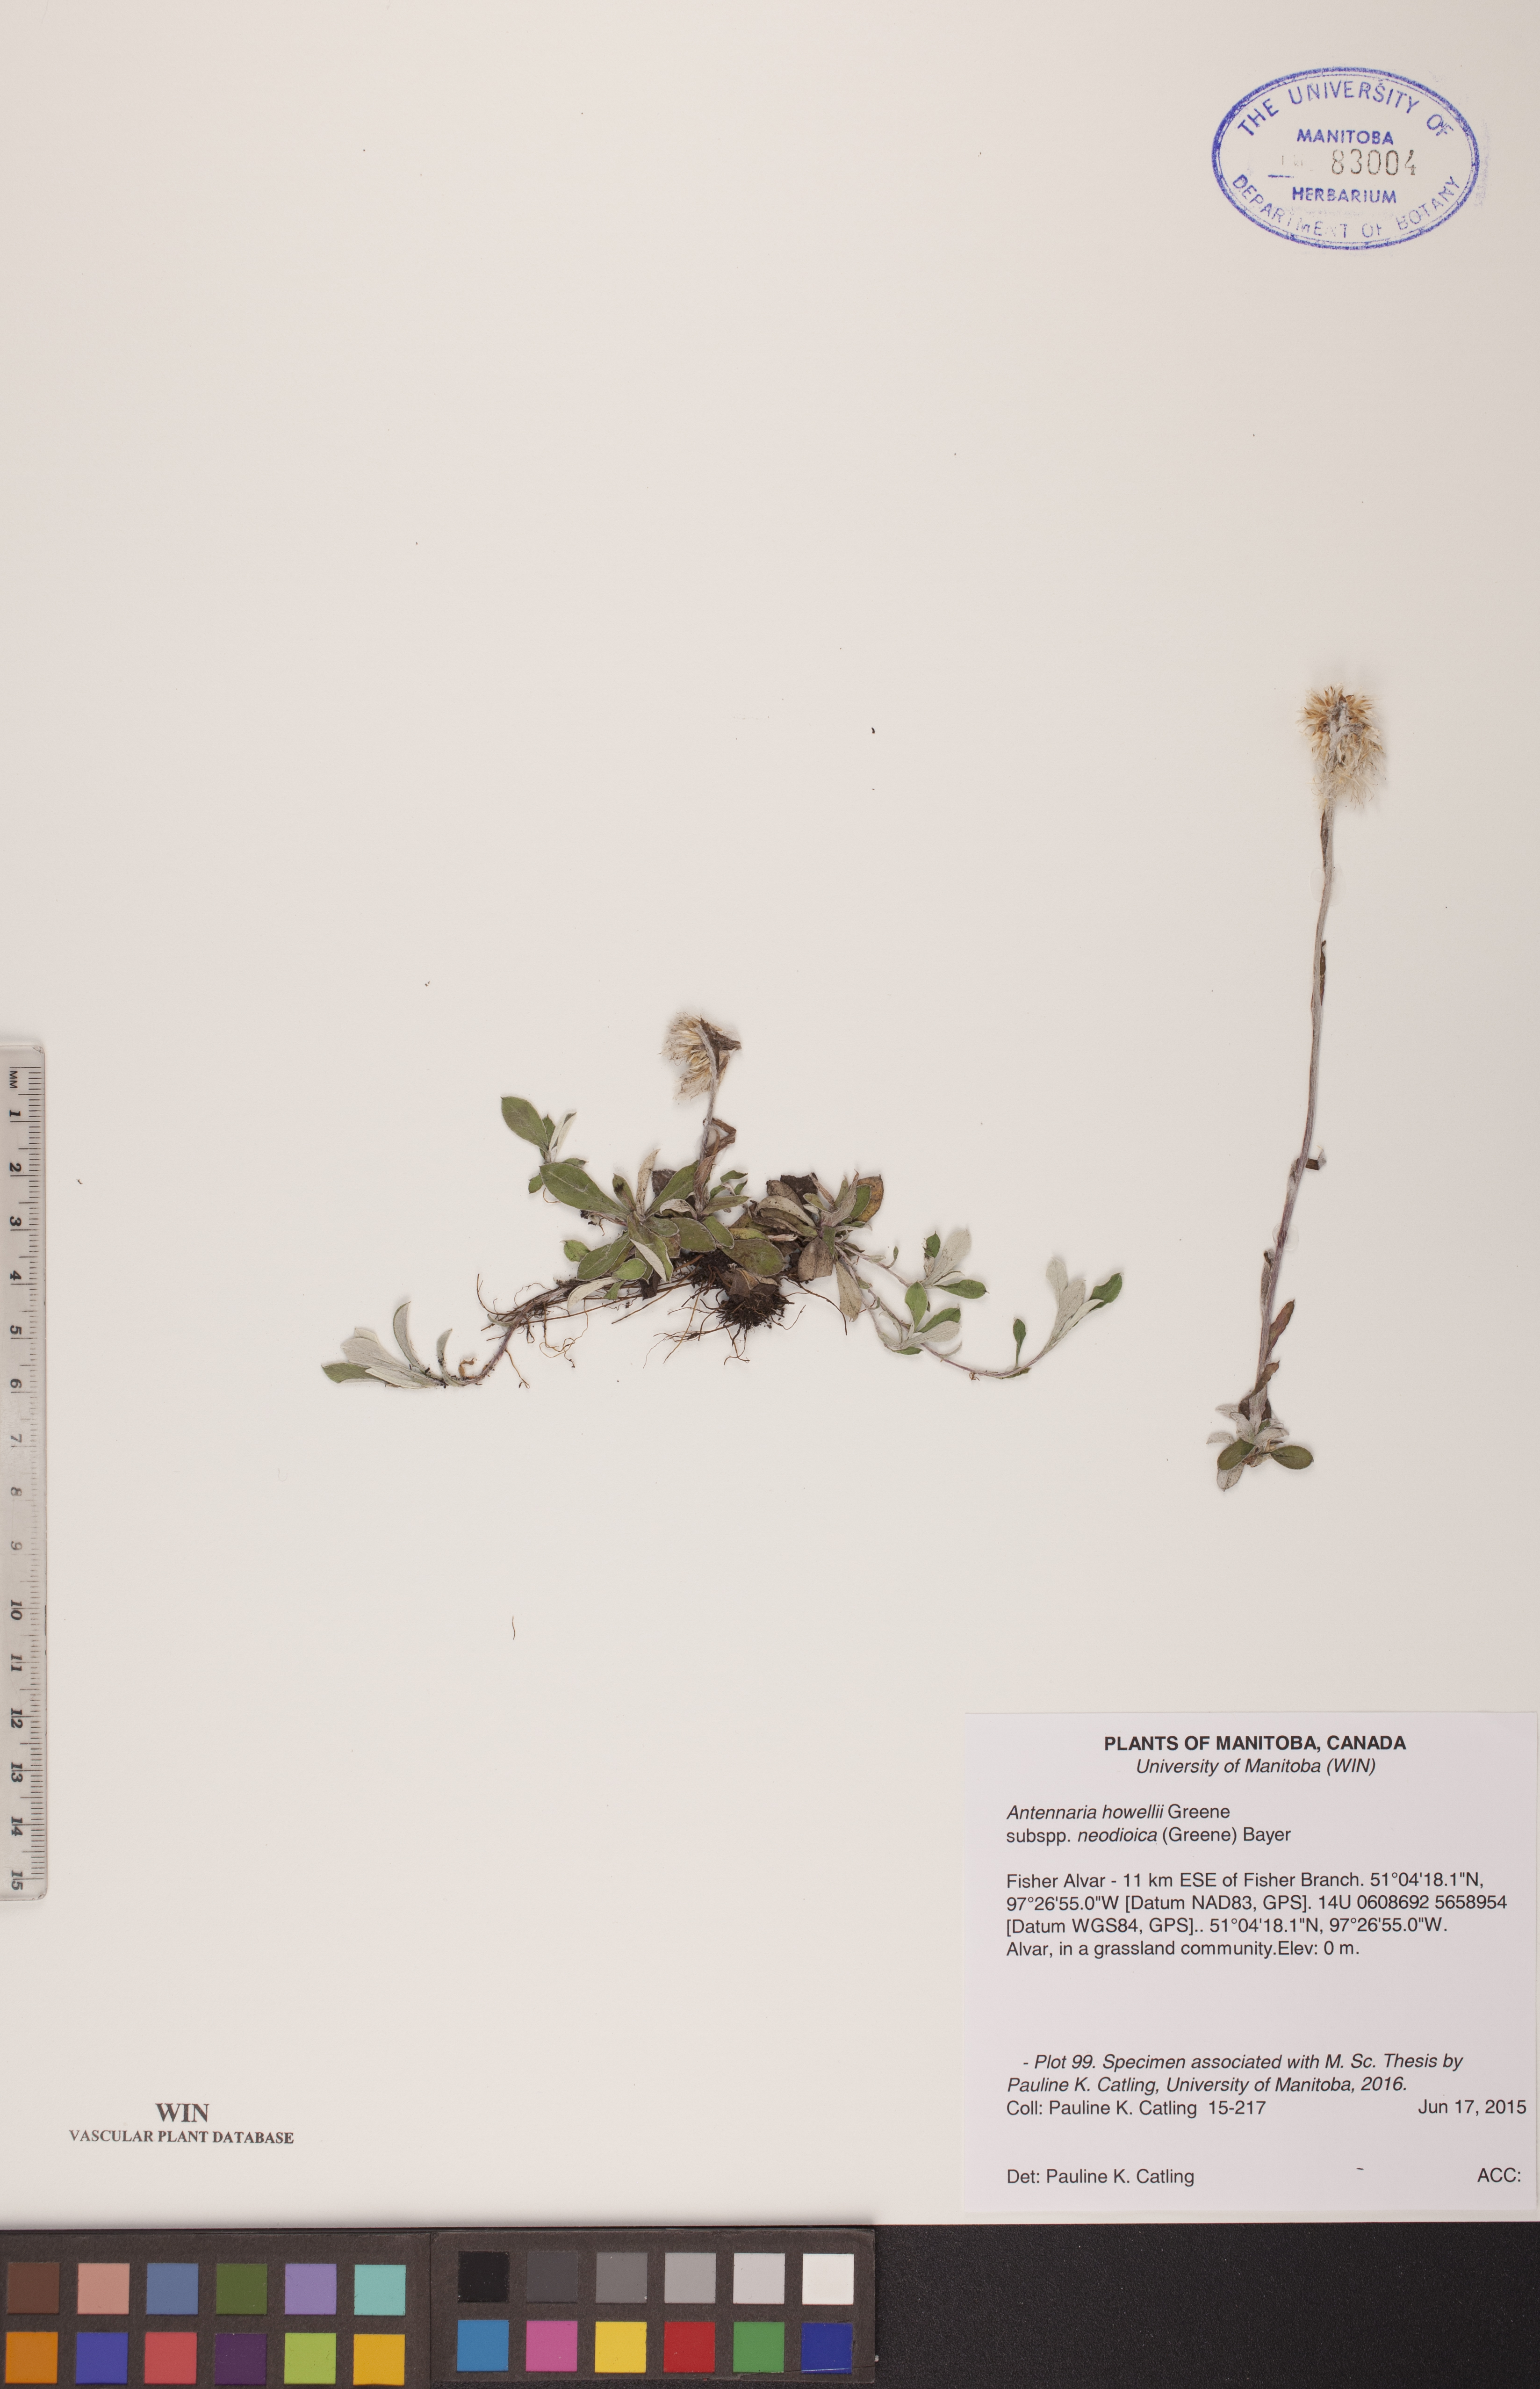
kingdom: Plantae
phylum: Tracheophyta
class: Magnoliopsida
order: Asterales
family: Asteraceae
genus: Antennaria
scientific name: Antennaria howellii
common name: Howell's pussytoes
